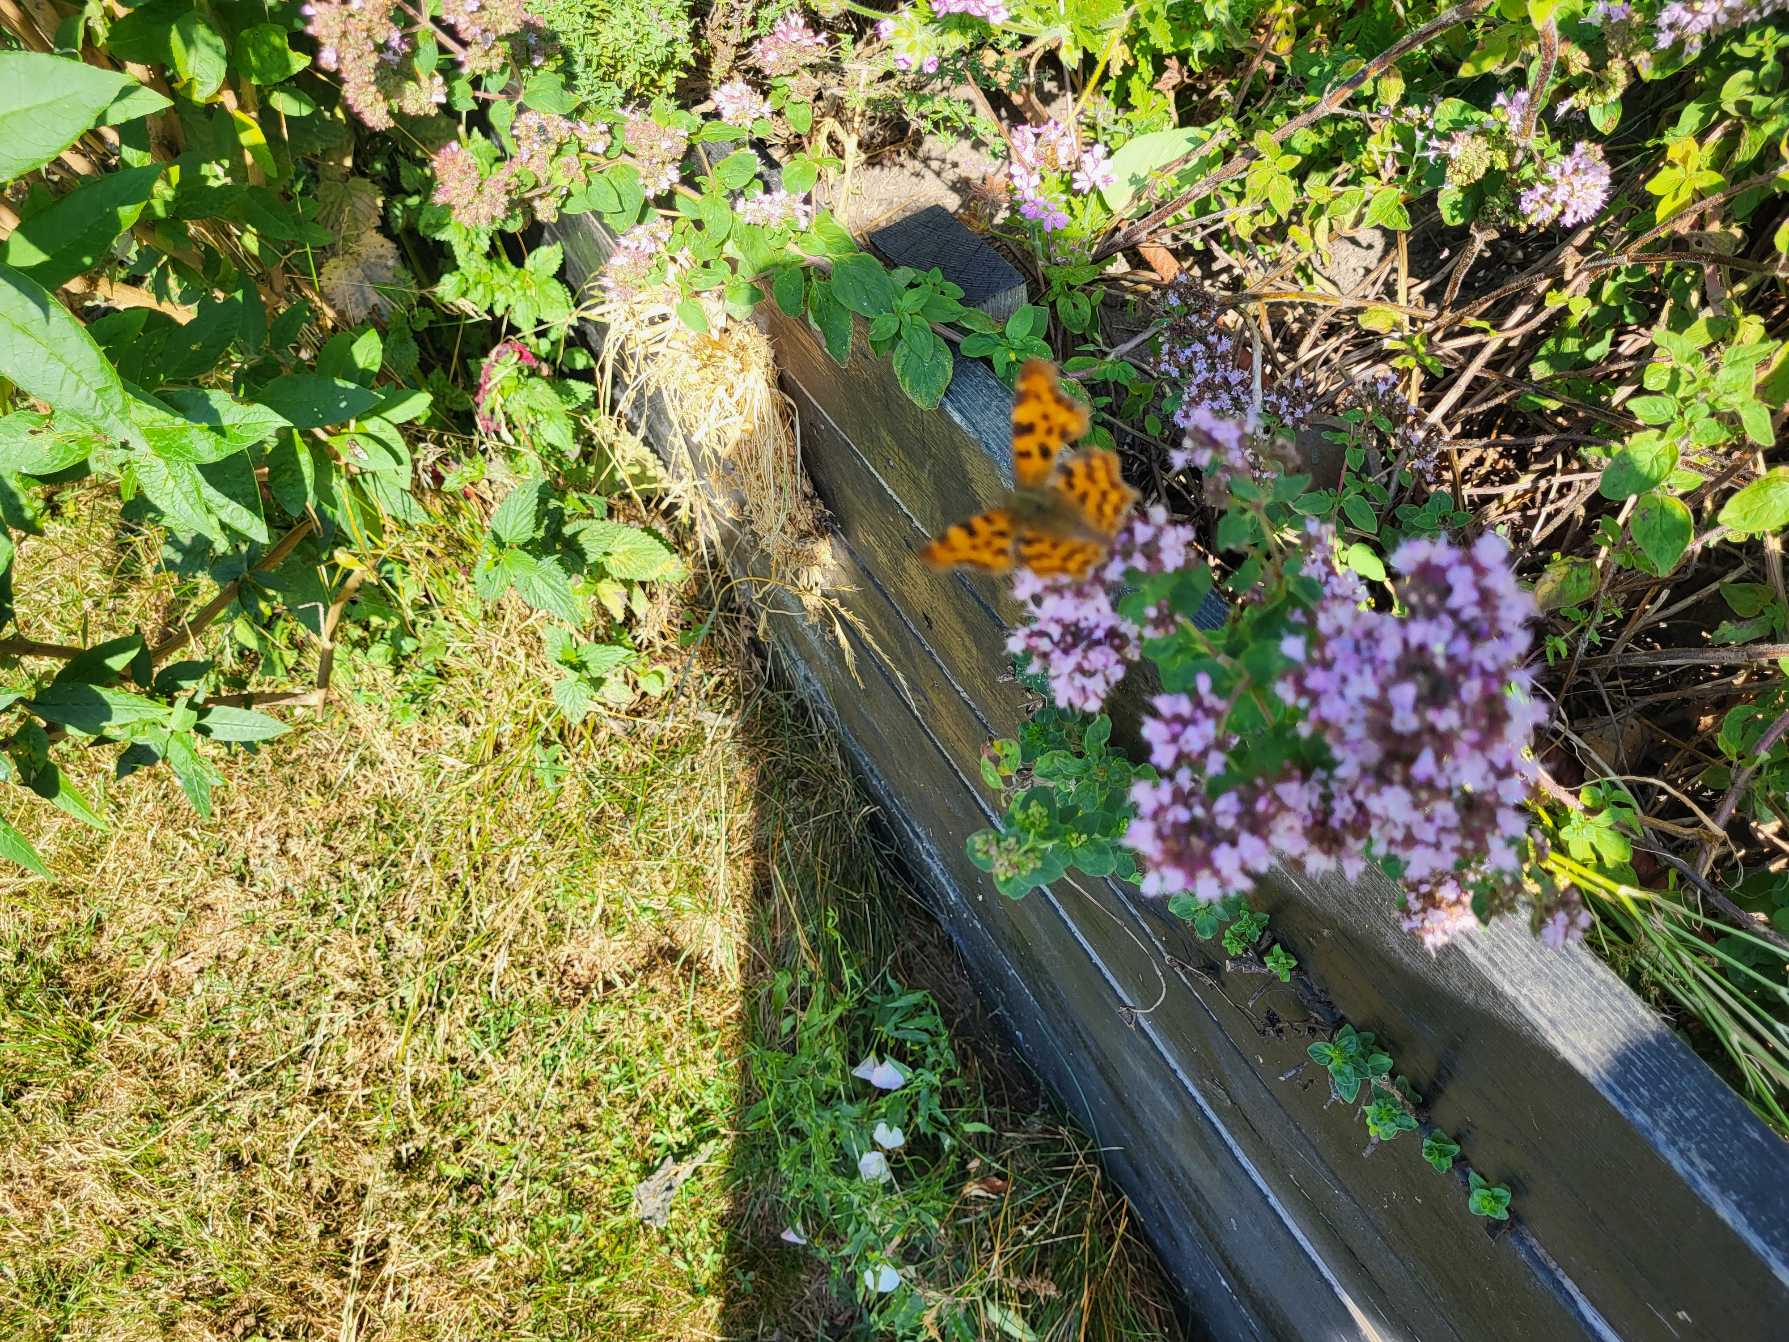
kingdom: Animalia
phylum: Arthropoda
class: Insecta
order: Lepidoptera
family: Nymphalidae
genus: Polygonia
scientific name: Polygonia c-album
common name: Det hvide C
